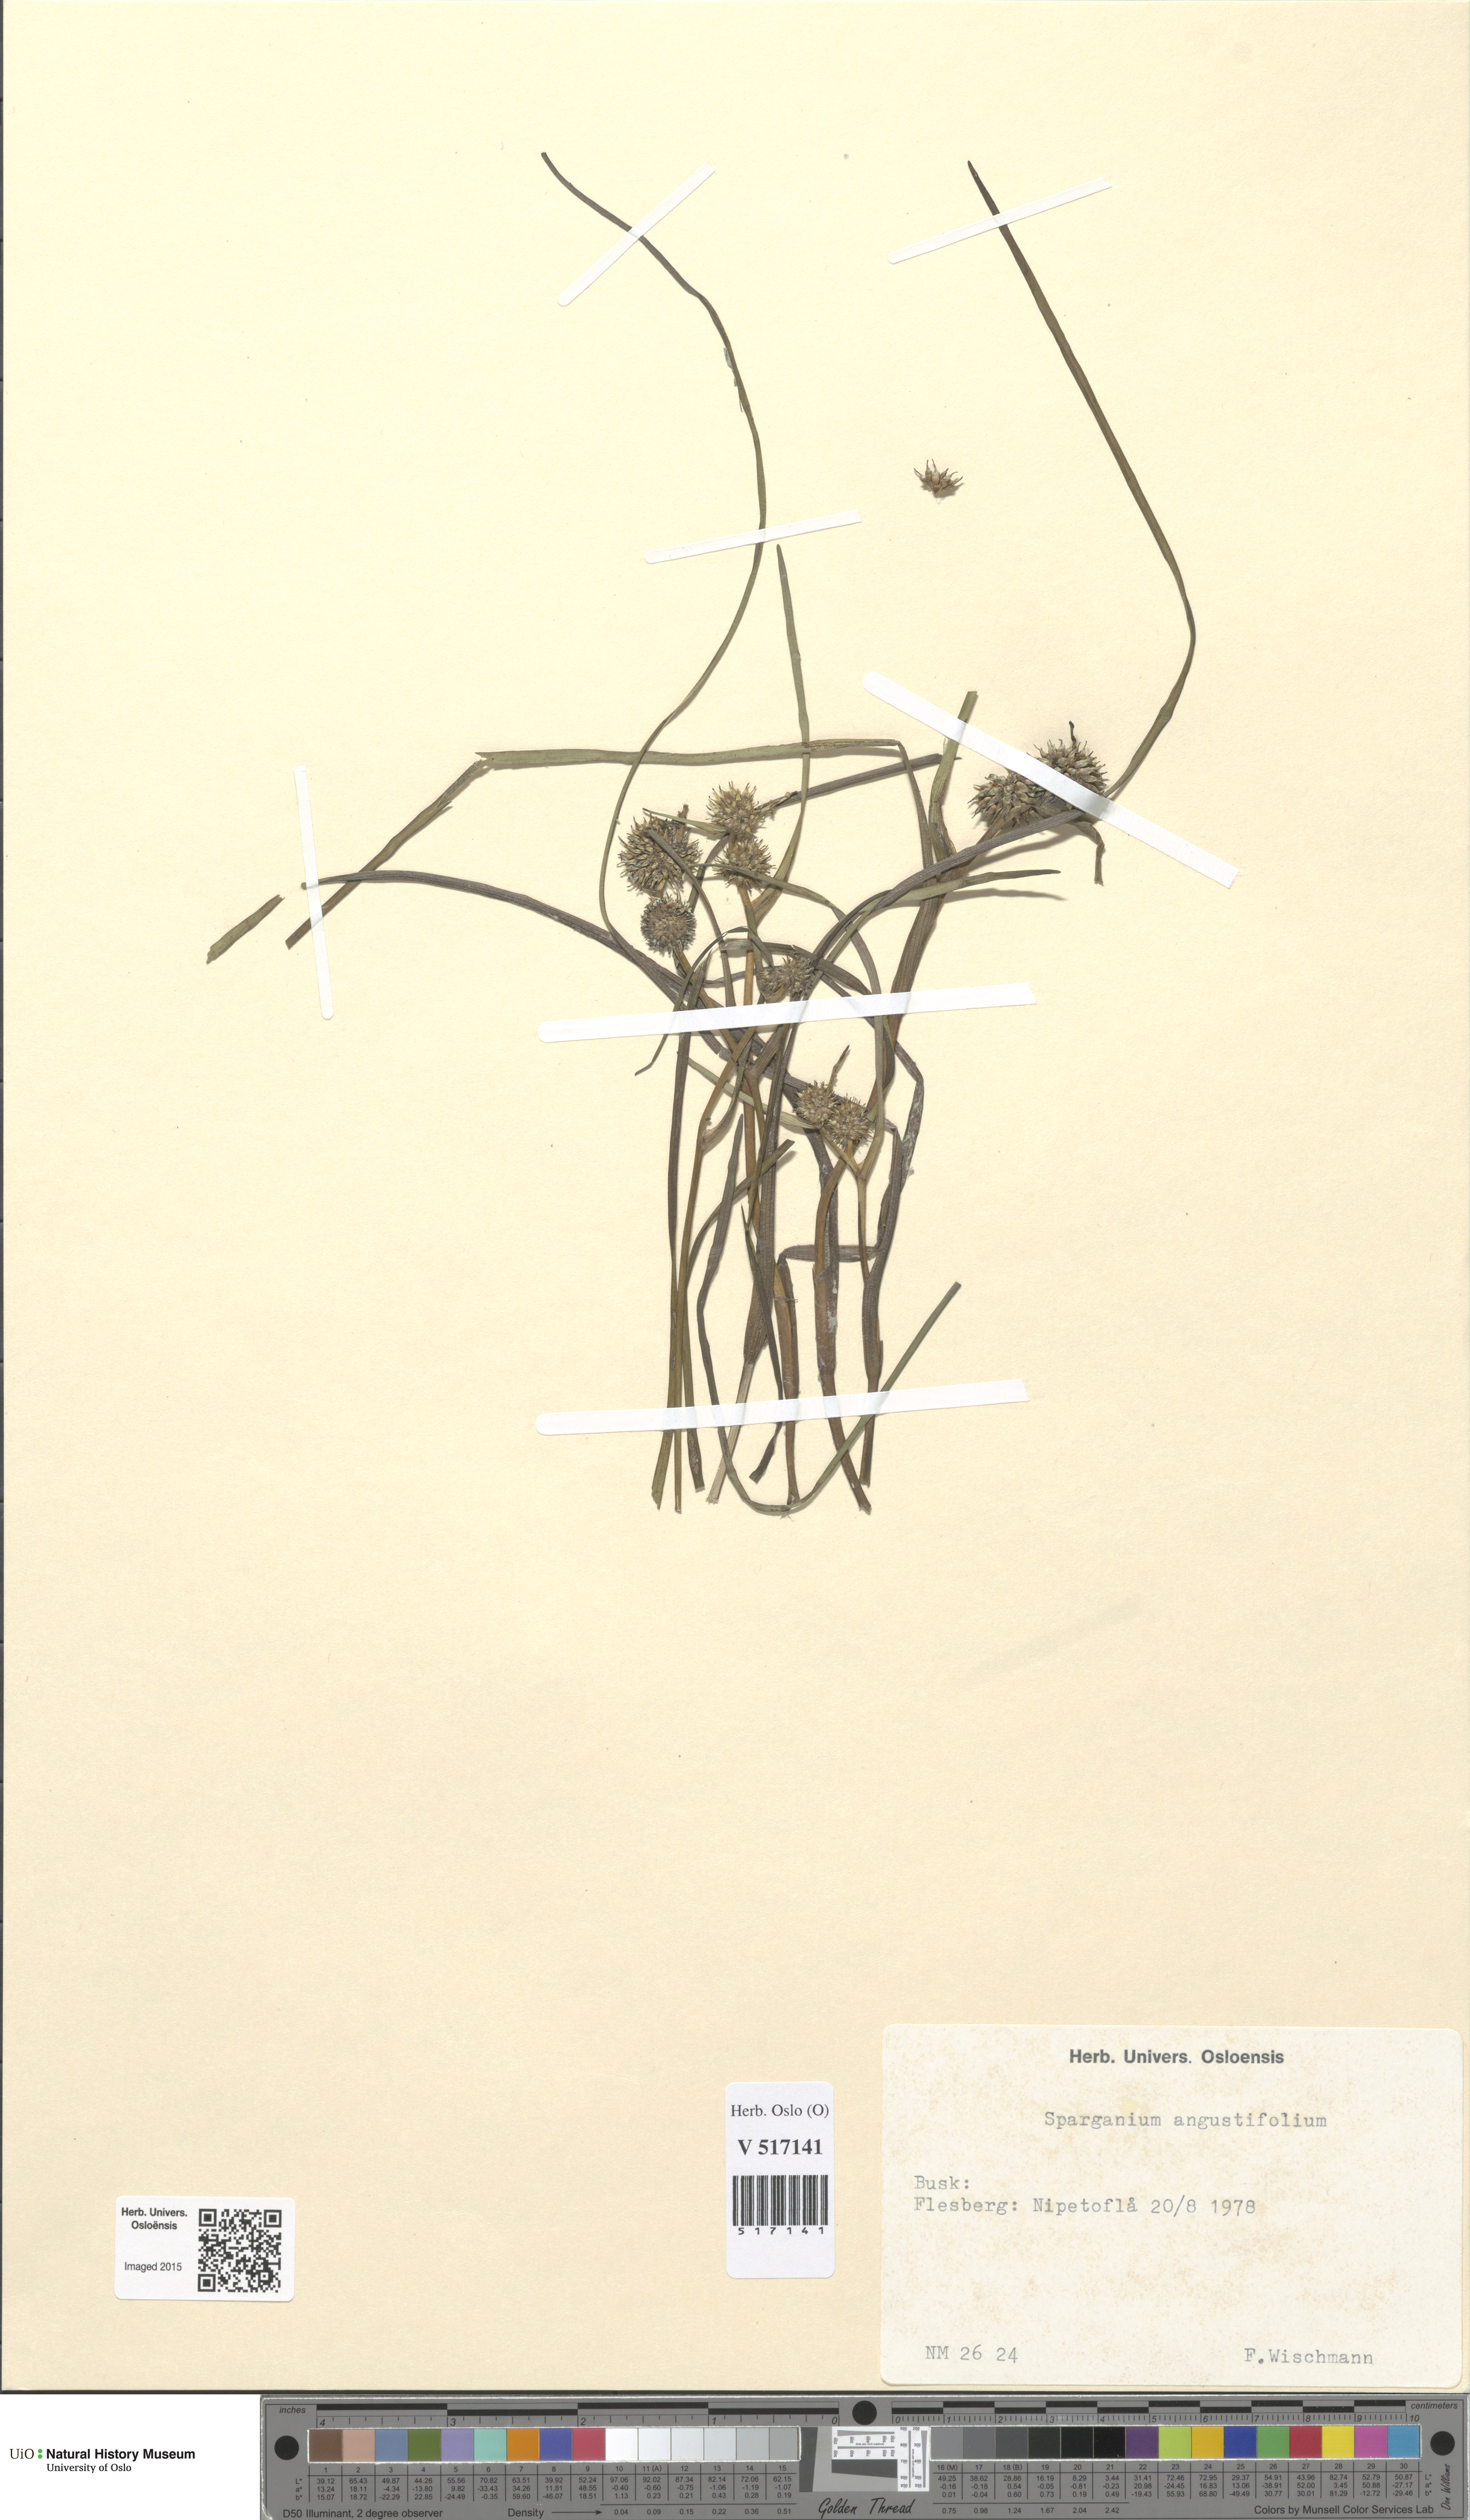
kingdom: Plantae
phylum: Tracheophyta
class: Liliopsida
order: Poales
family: Typhaceae
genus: Sparganium
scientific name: Sparganium angustifolium
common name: Floating bur-reed
